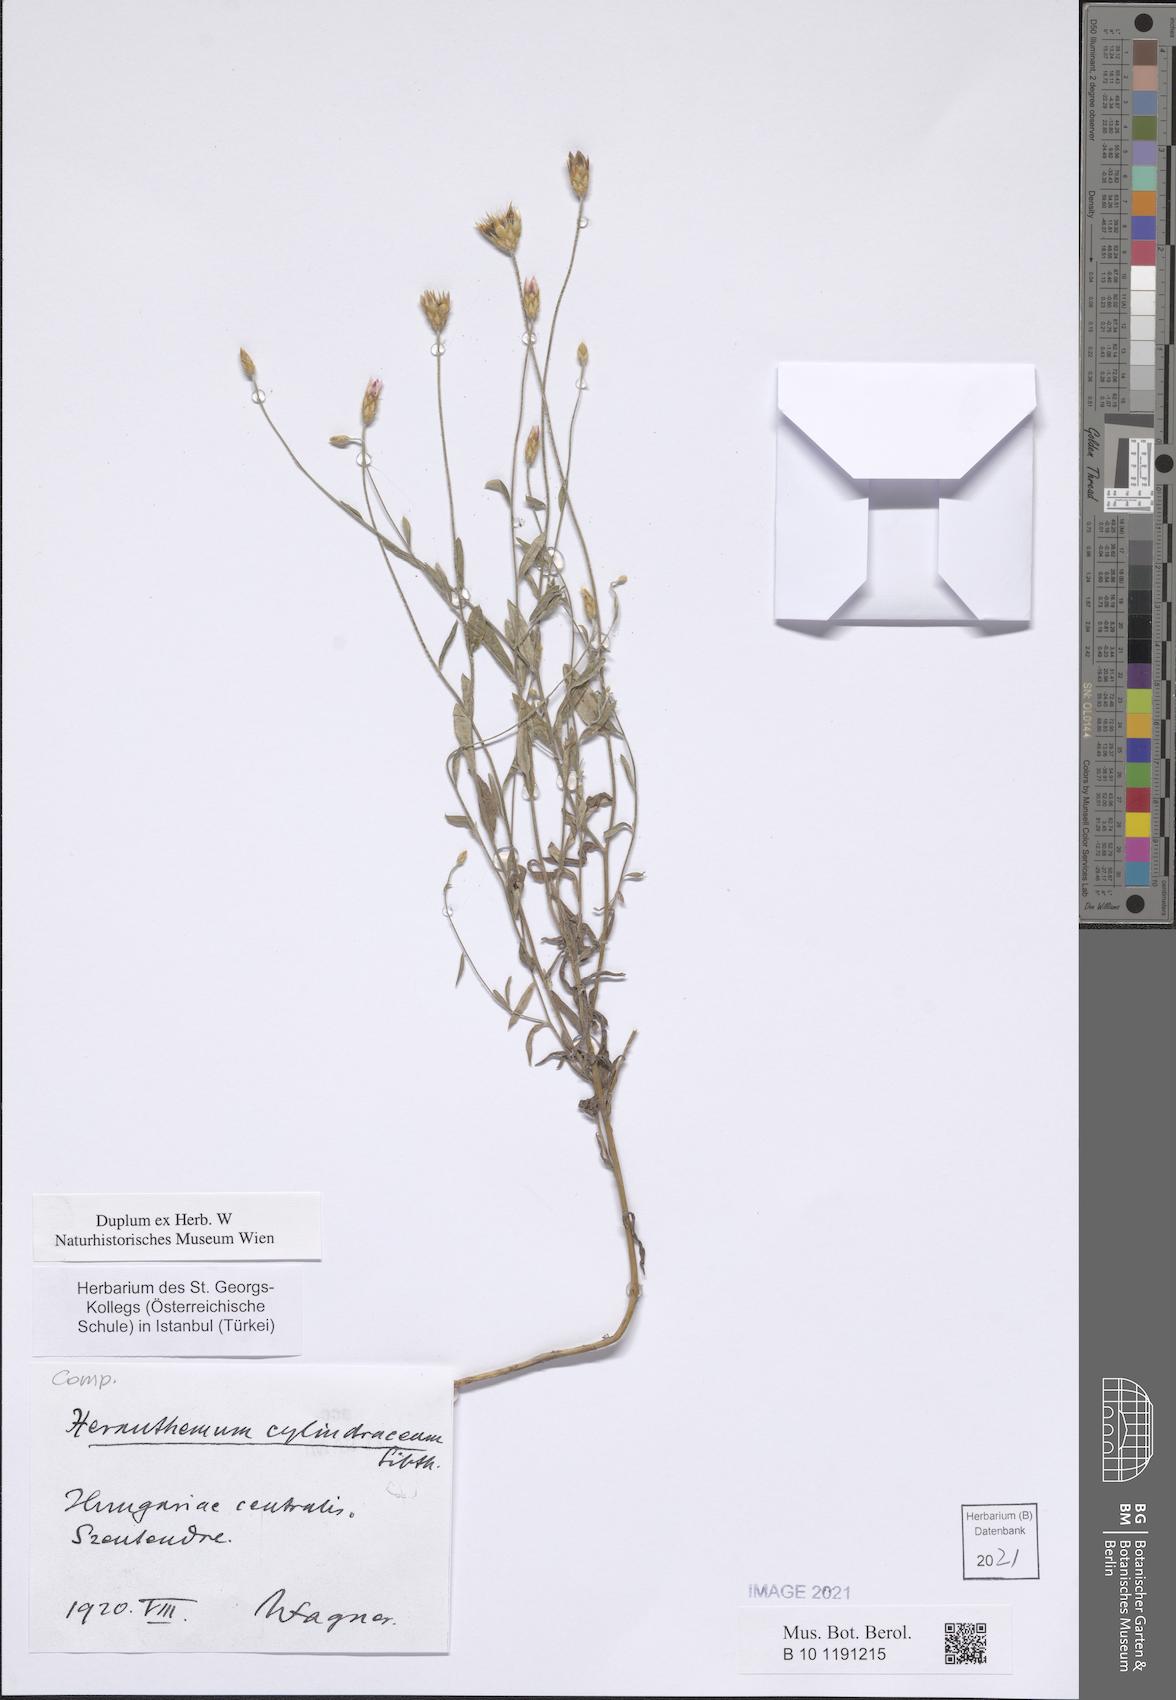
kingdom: Plantae
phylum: Tracheophyta
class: Magnoliopsida
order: Asterales
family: Asteraceae
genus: Xeranthemum
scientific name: Xeranthemum cylindraceum
